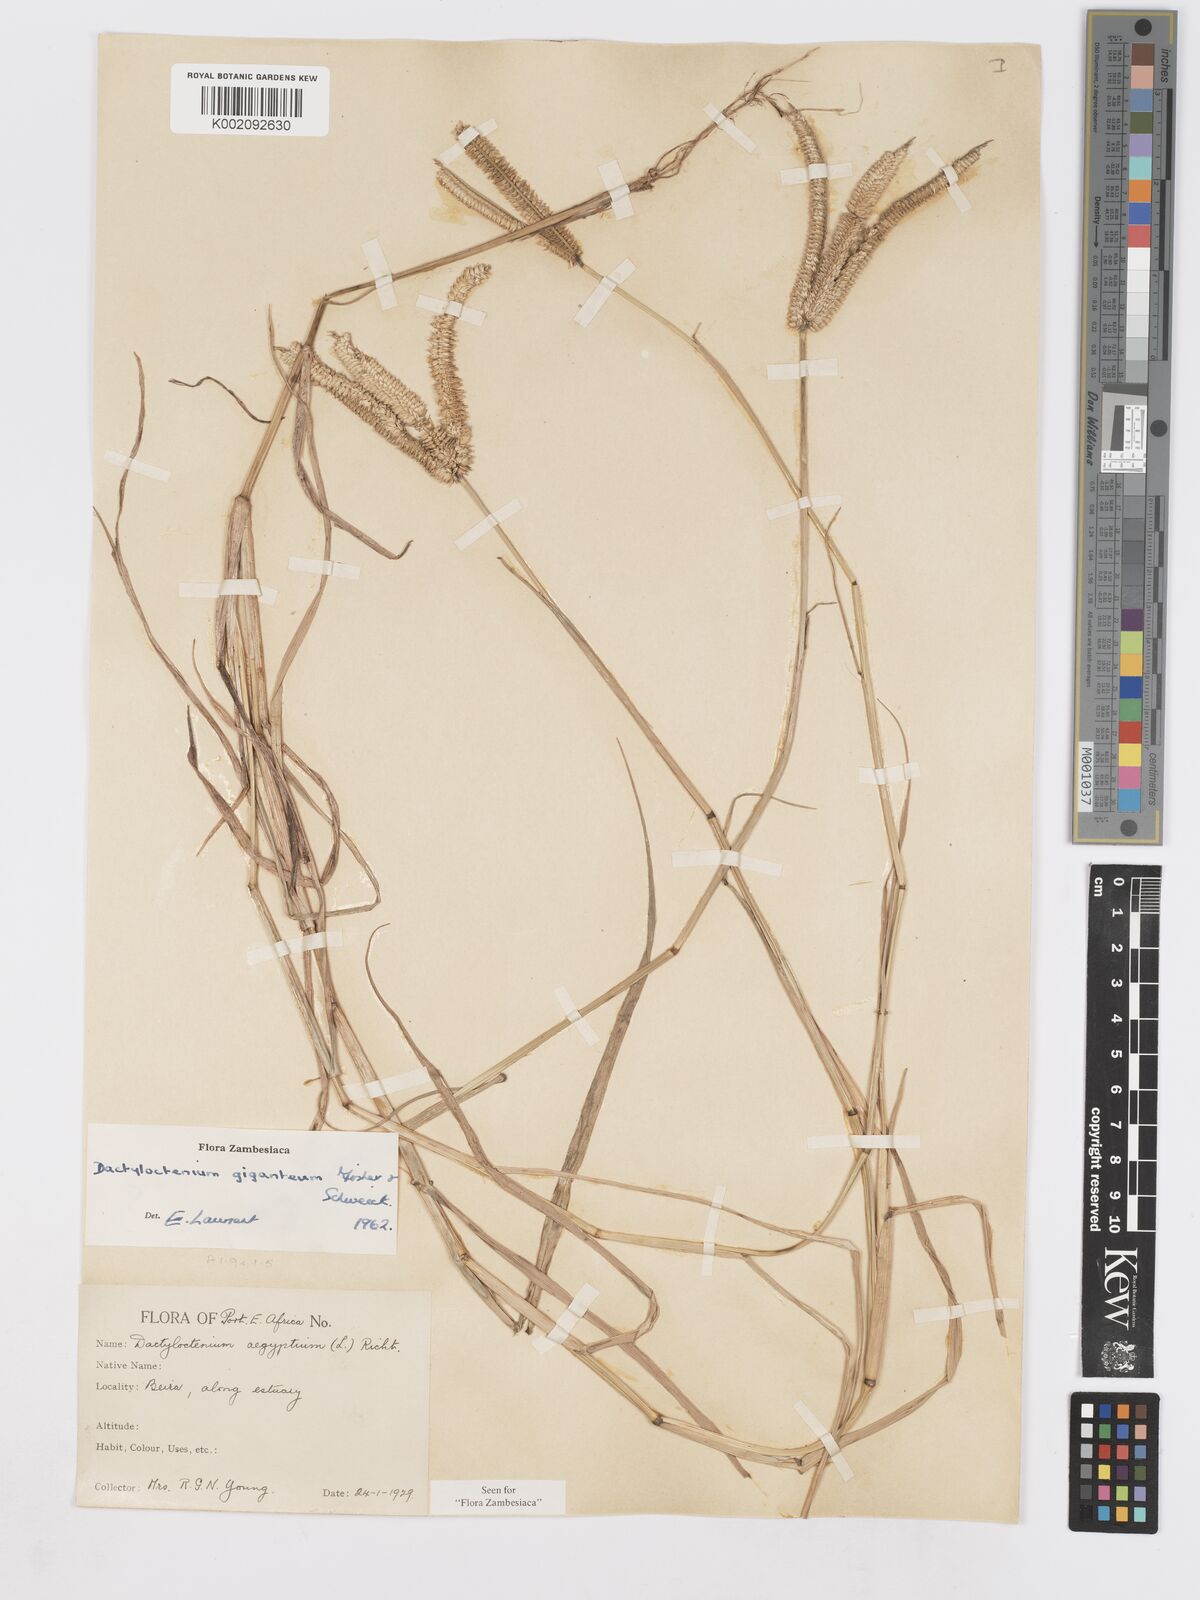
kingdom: Plantae
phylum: Tracheophyta
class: Liliopsida
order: Poales
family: Poaceae
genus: Dactyloctenium
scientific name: Dactyloctenium geminatum
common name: Crowsfoot grass
